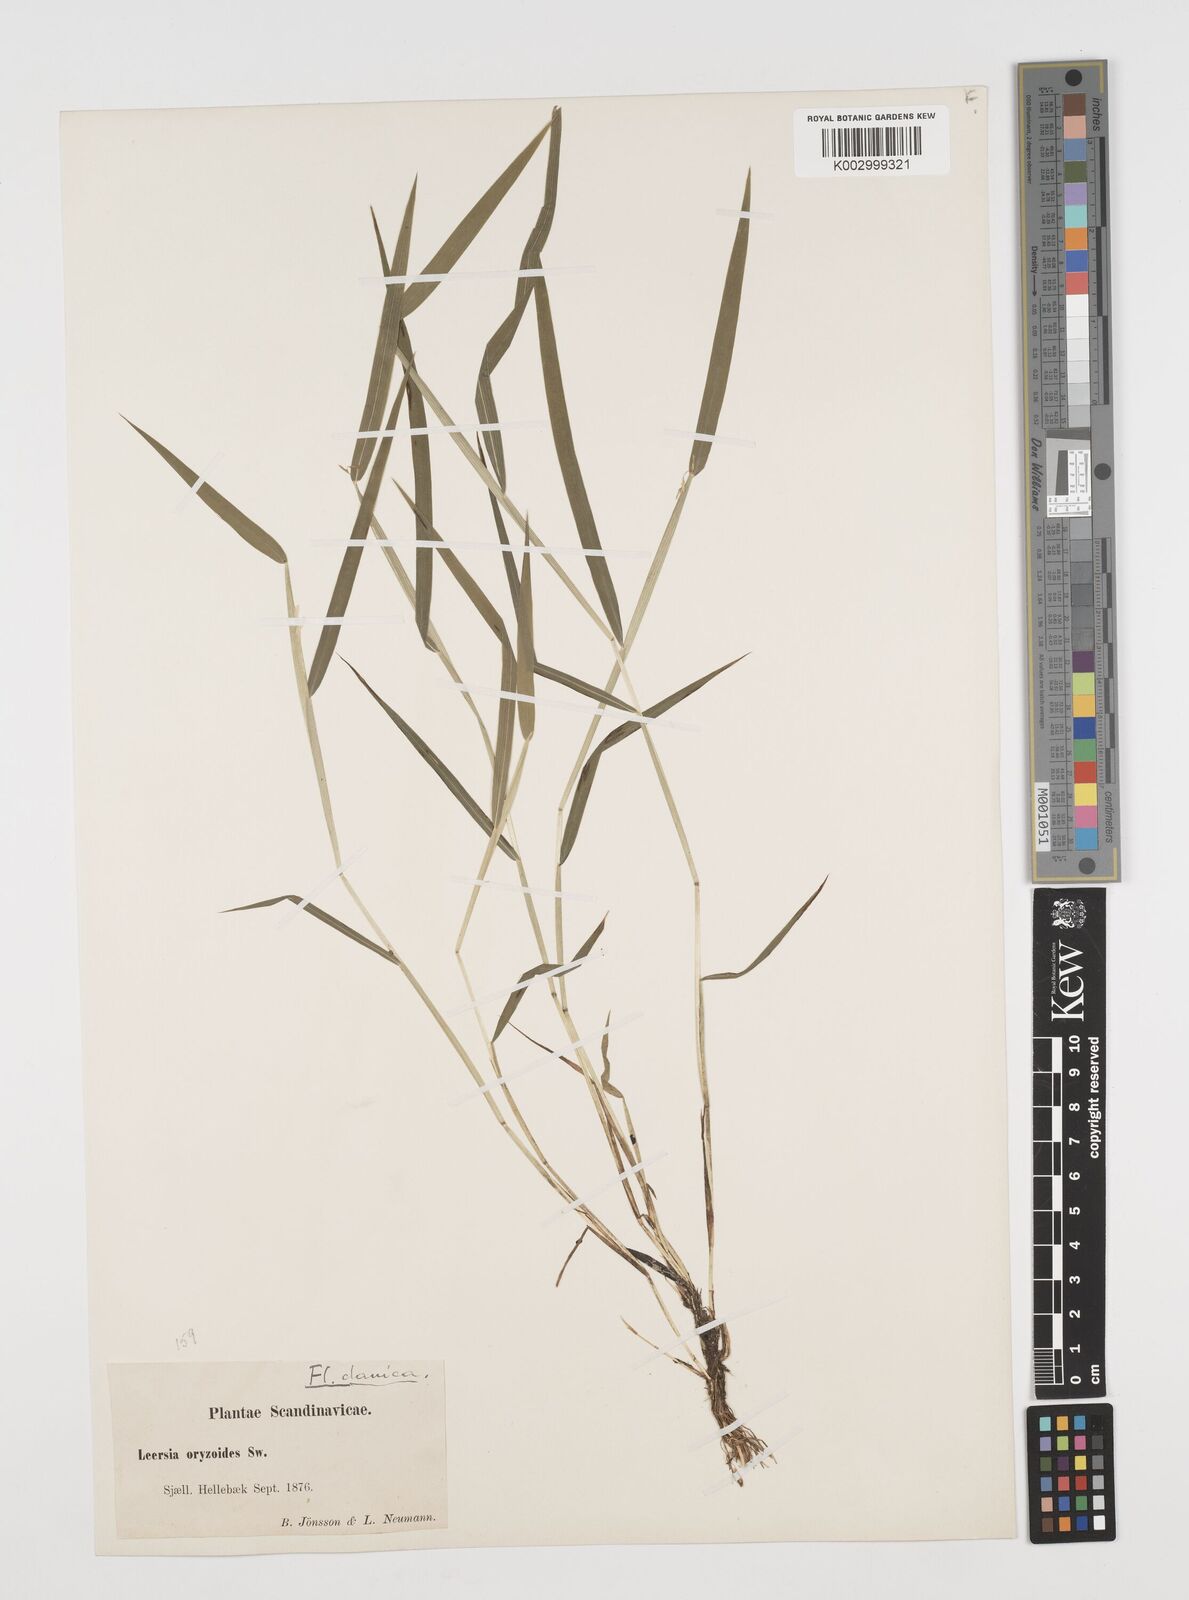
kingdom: Plantae
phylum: Tracheophyta
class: Liliopsida
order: Poales
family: Poaceae
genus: Leersia
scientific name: Leersia oryzoides
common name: Cut-grass
